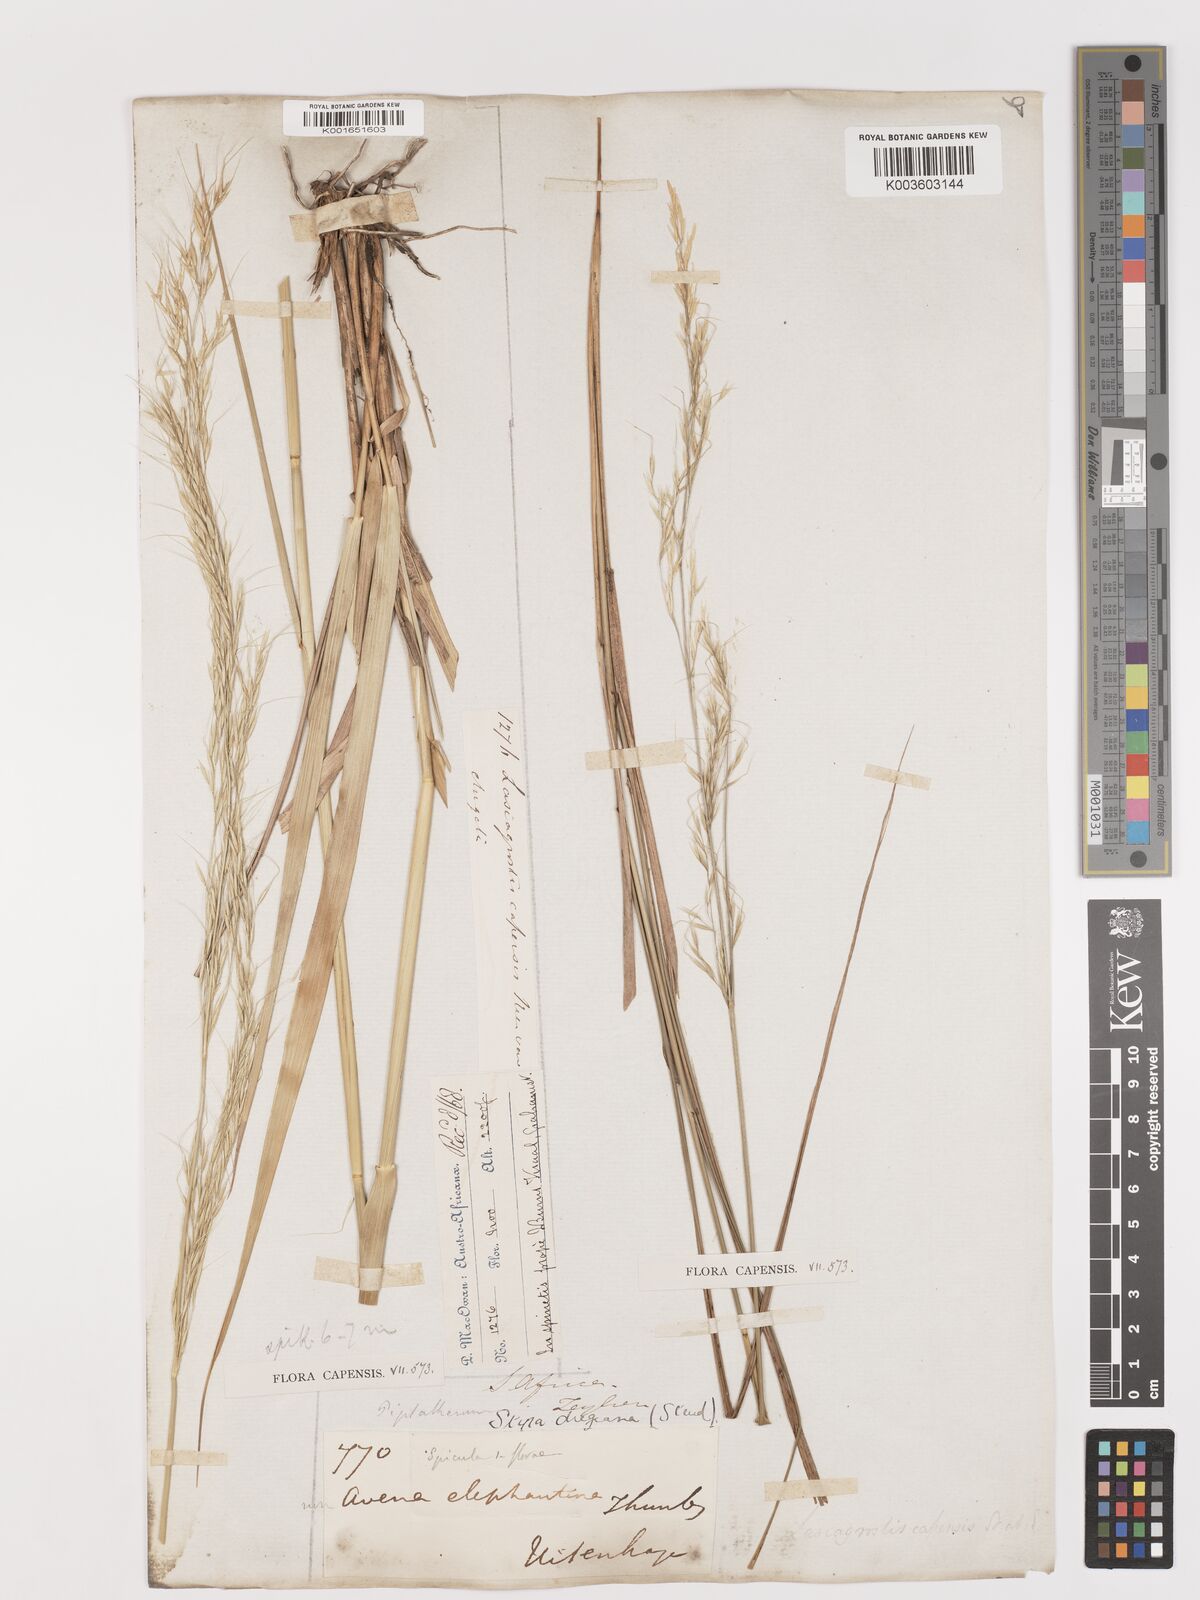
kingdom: Plantae
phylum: Tracheophyta
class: Liliopsida
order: Poales
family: Poaceae
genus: Stipa
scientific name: Stipa dregeana
